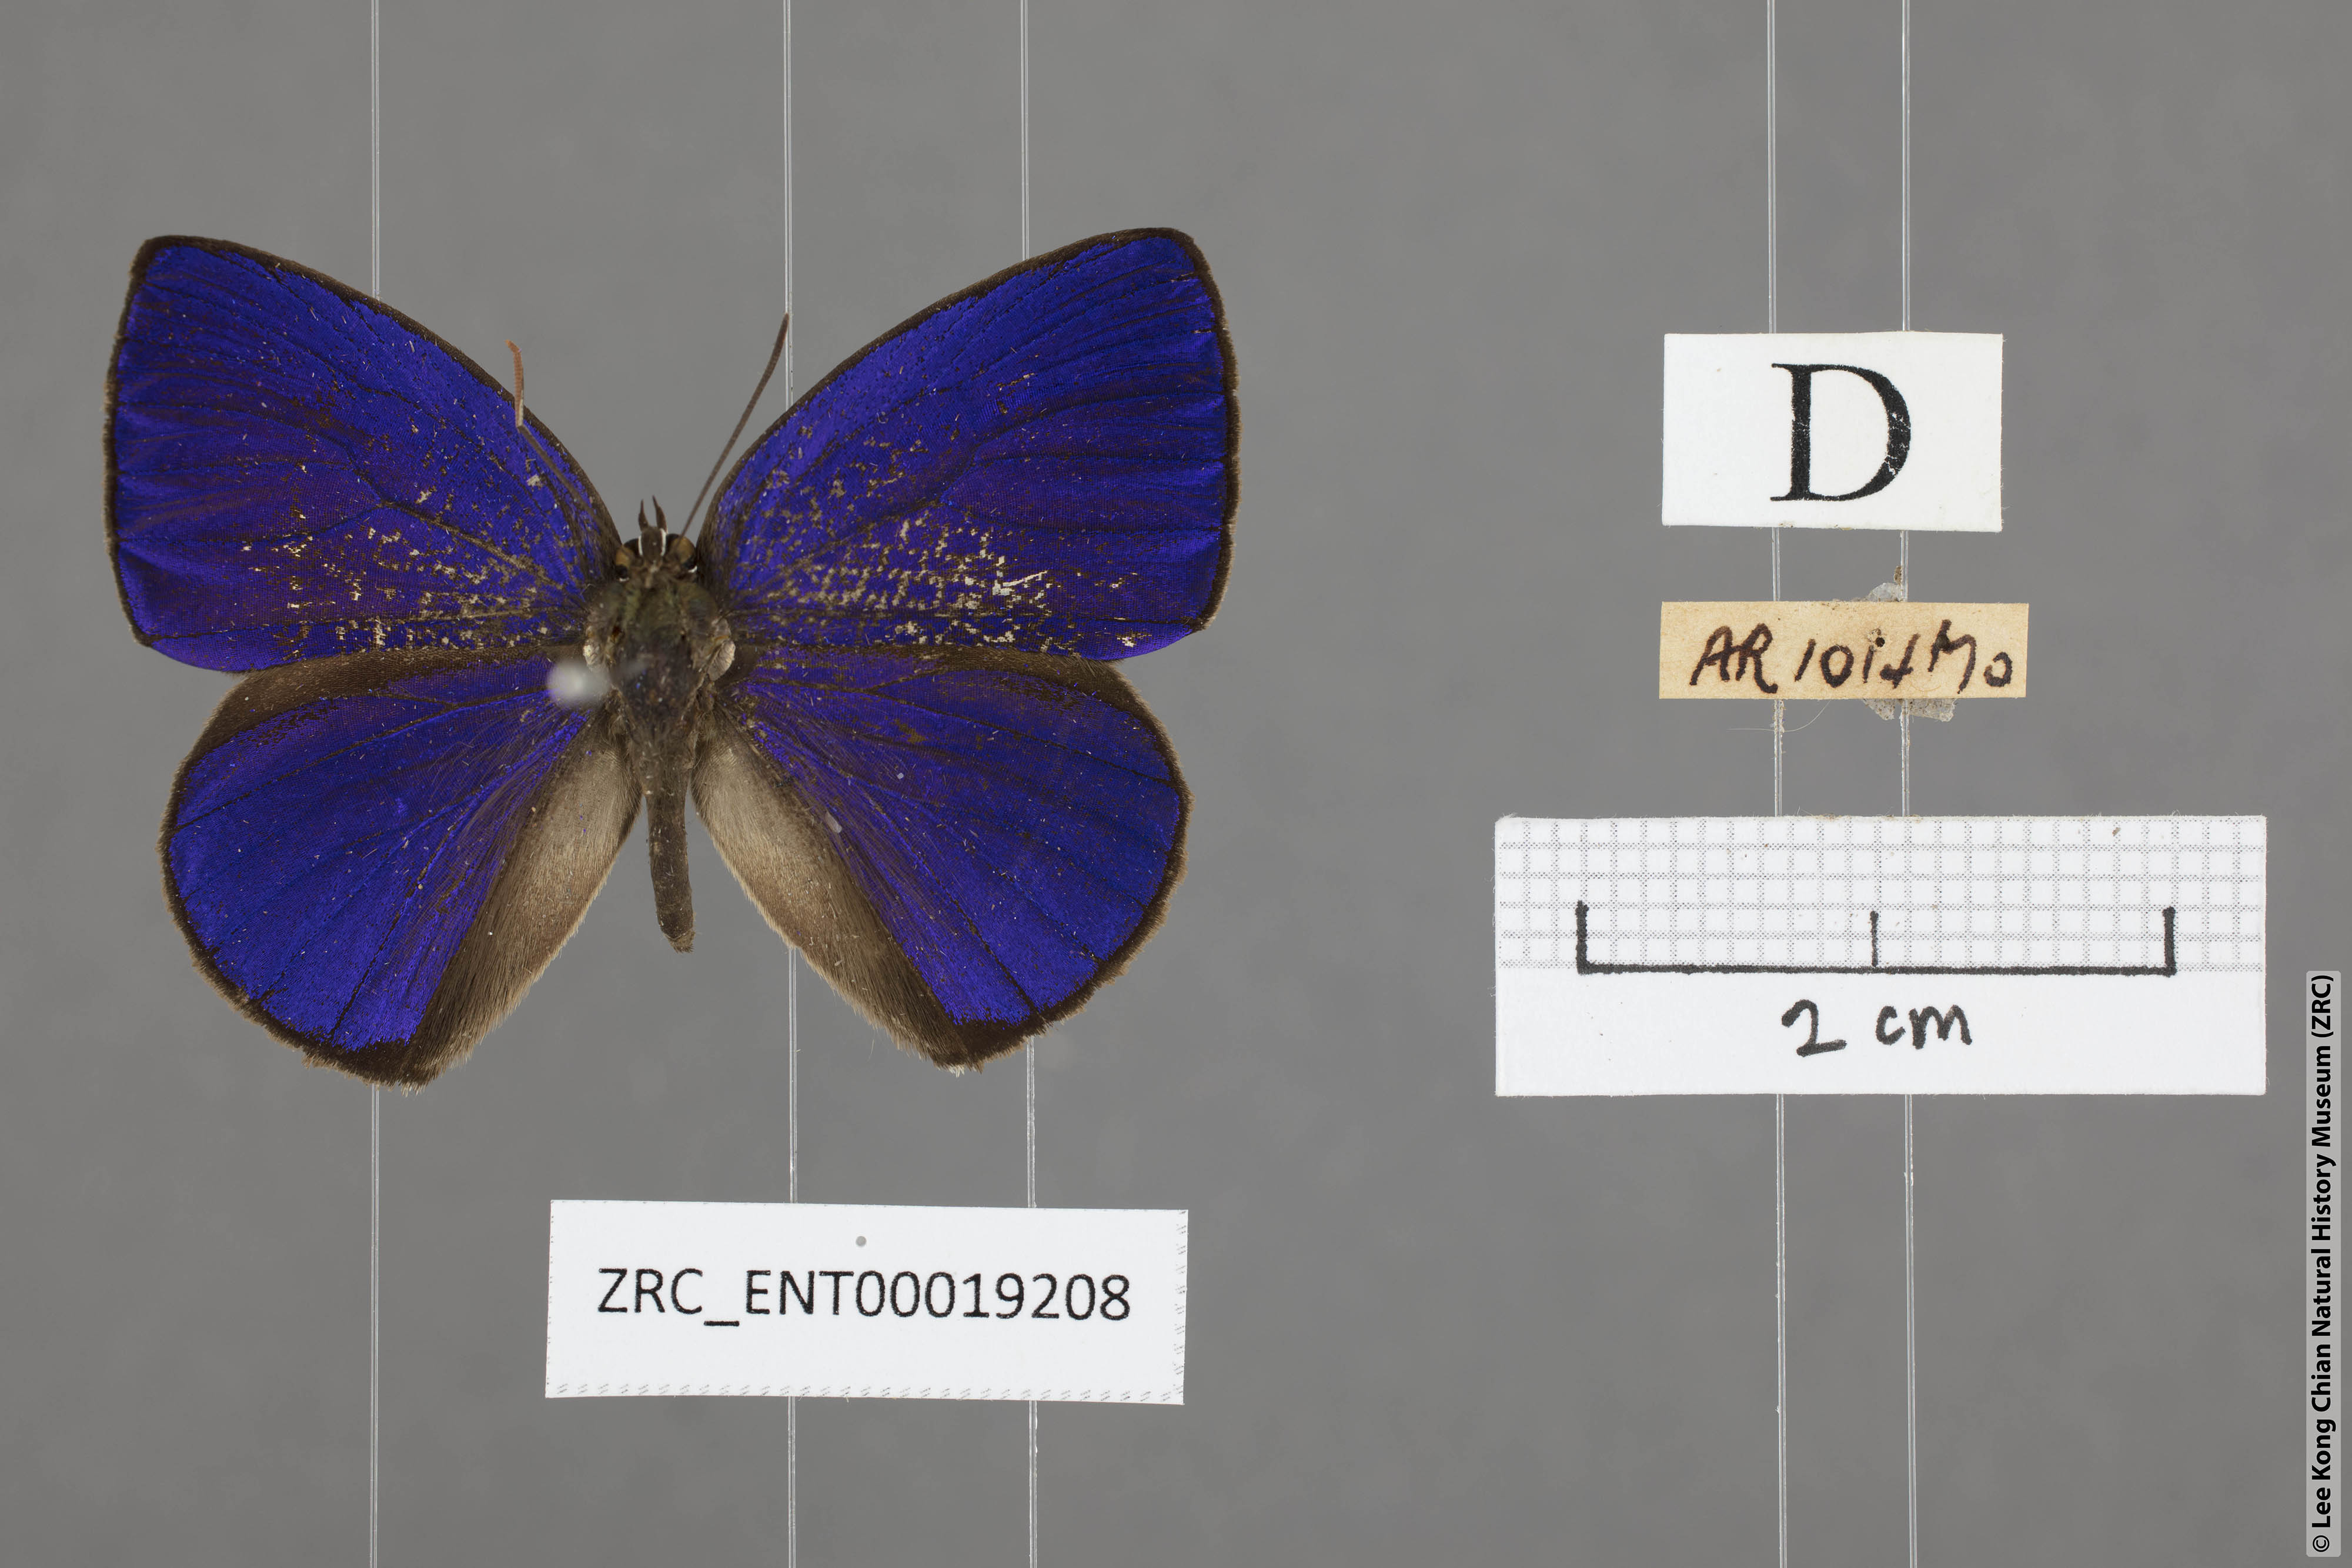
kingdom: Animalia
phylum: Arthropoda
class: Insecta
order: Lepidoptera
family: Lycaenidae
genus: Arhopala
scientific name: Arhopala arvina
